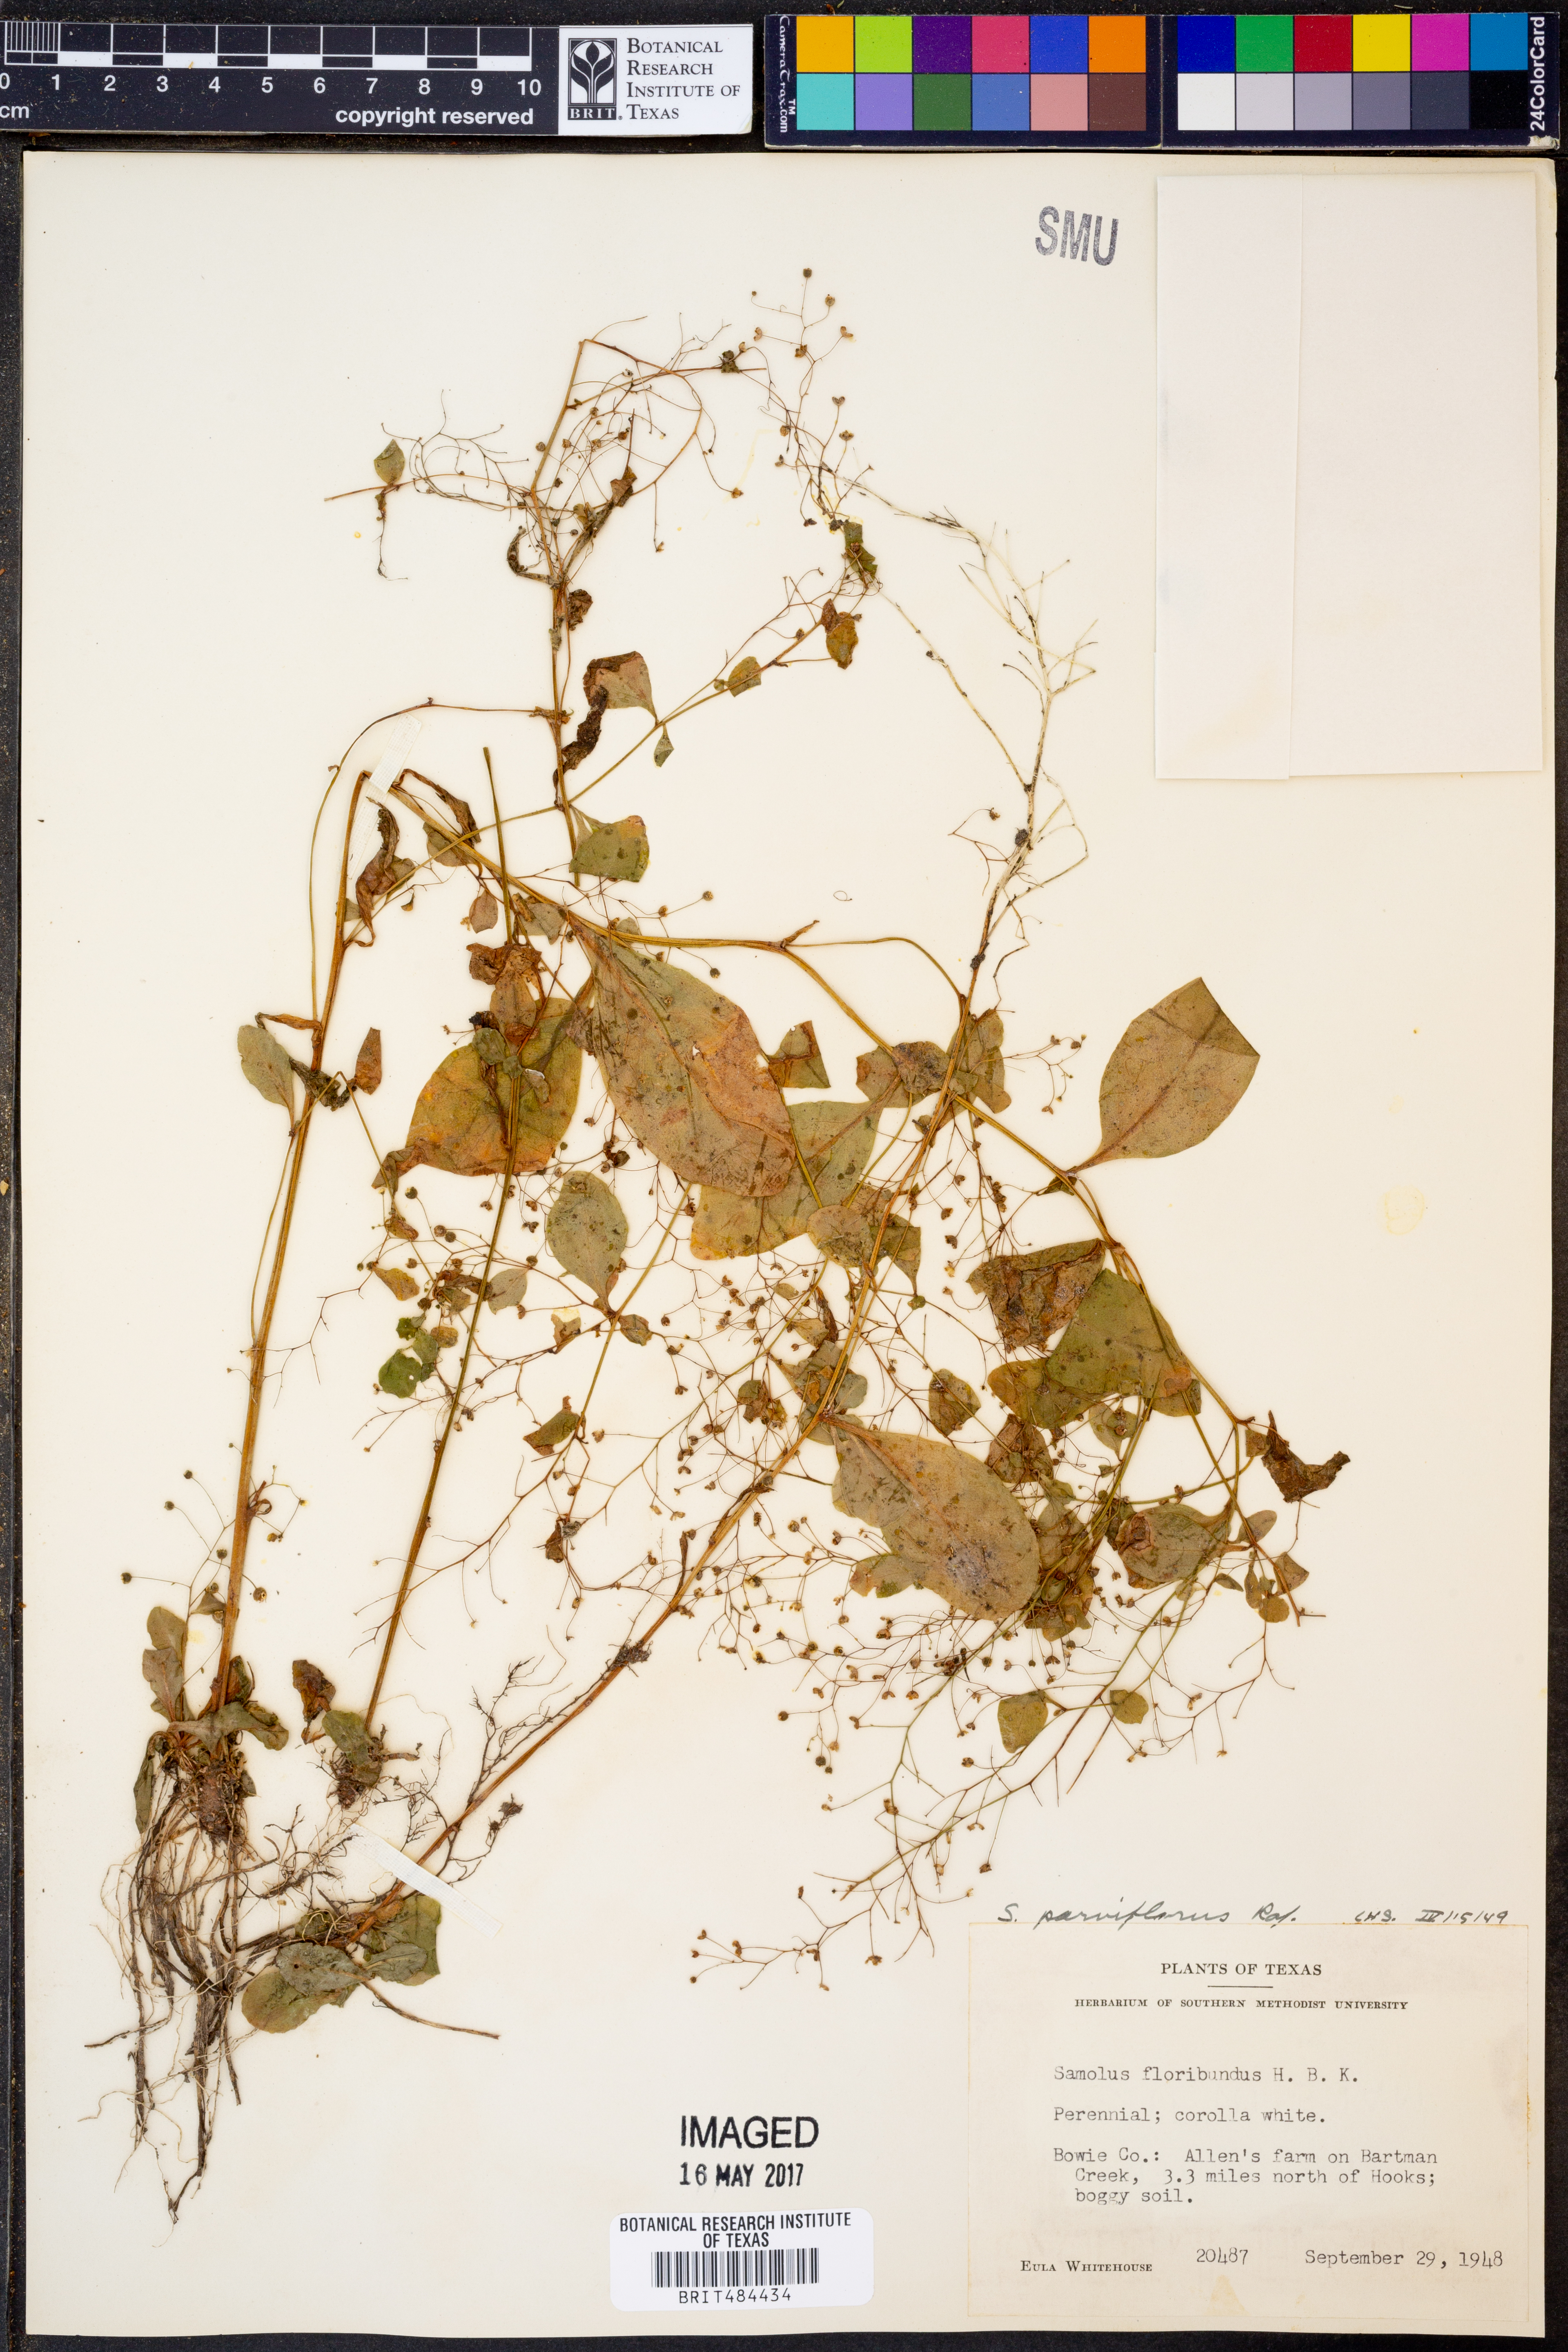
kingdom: Plantae
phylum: Tracheophyta
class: Magnoliopsida
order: Ericales
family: Primulaceae
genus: Samolus
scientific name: Samolus parviflorus
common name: False water pimpernel
